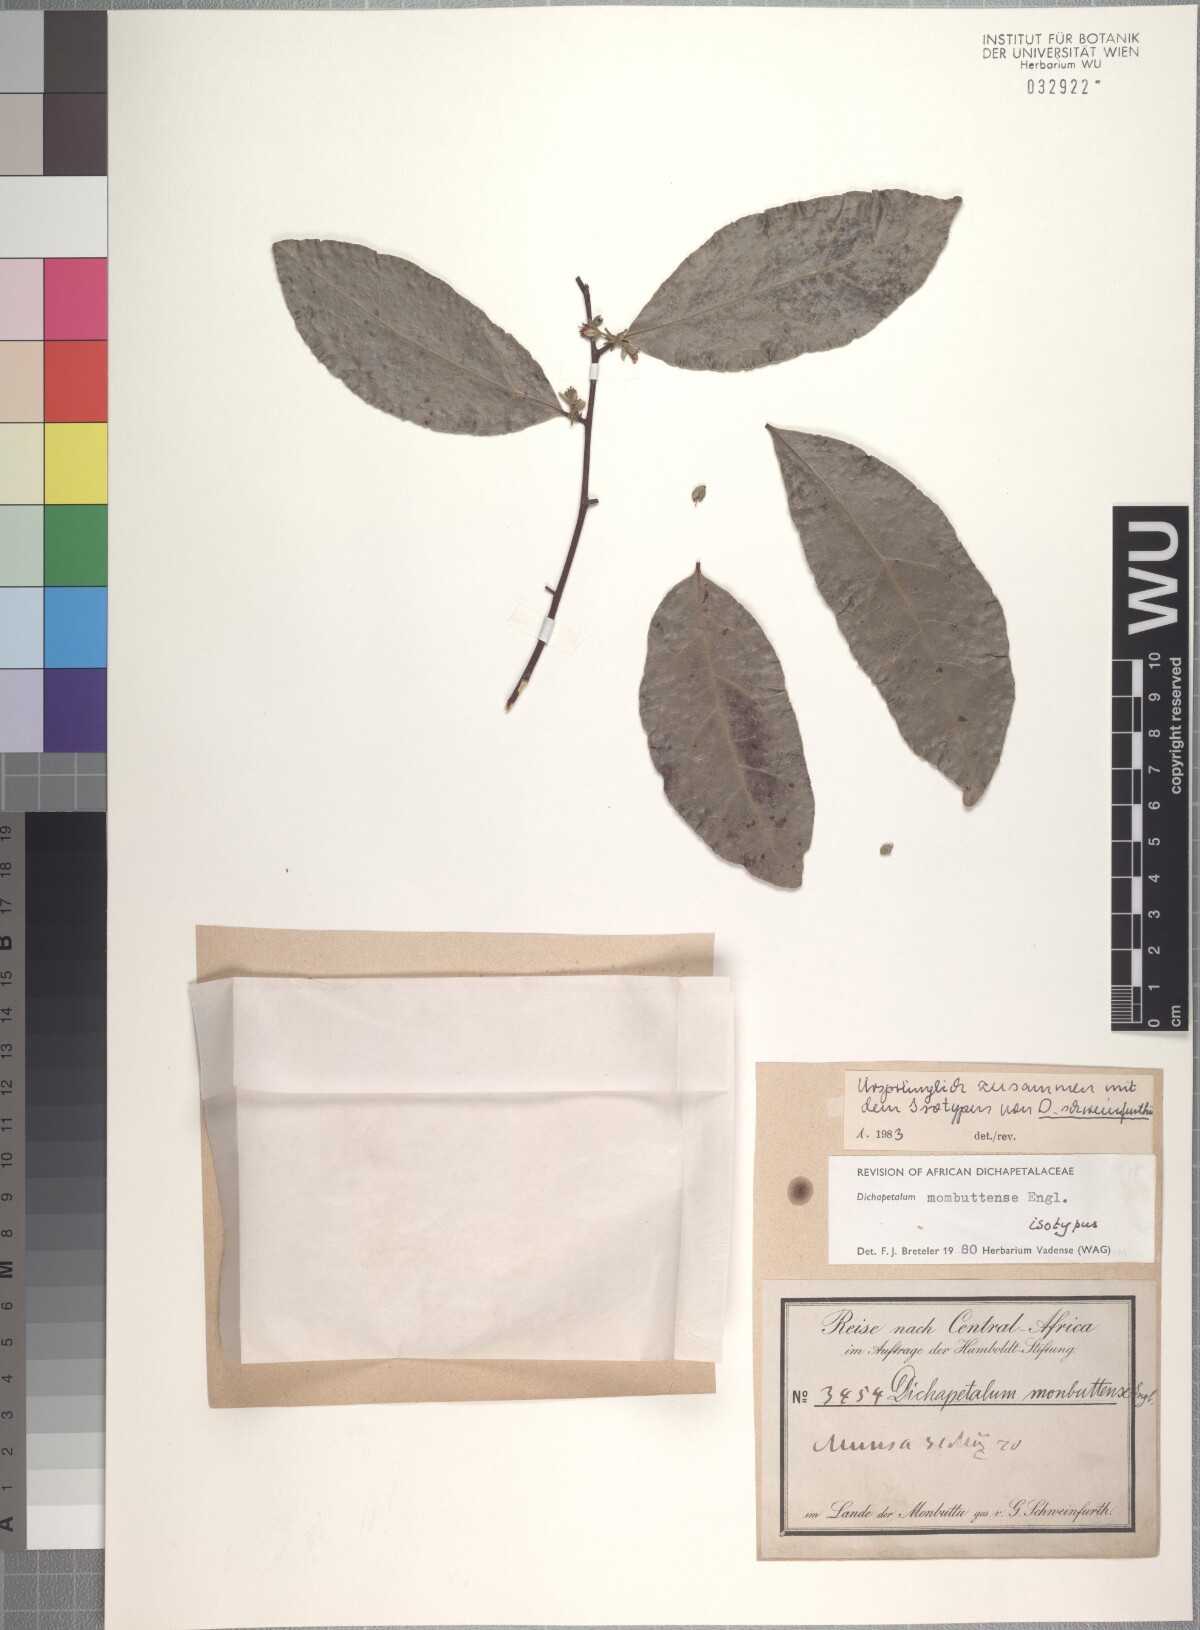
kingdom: Plantae
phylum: Tracheophyta
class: Magnoliopsida
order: Malpighiales
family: Dichapetalaceae
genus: Dichapetalum
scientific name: Dichapetalum mombuttense
